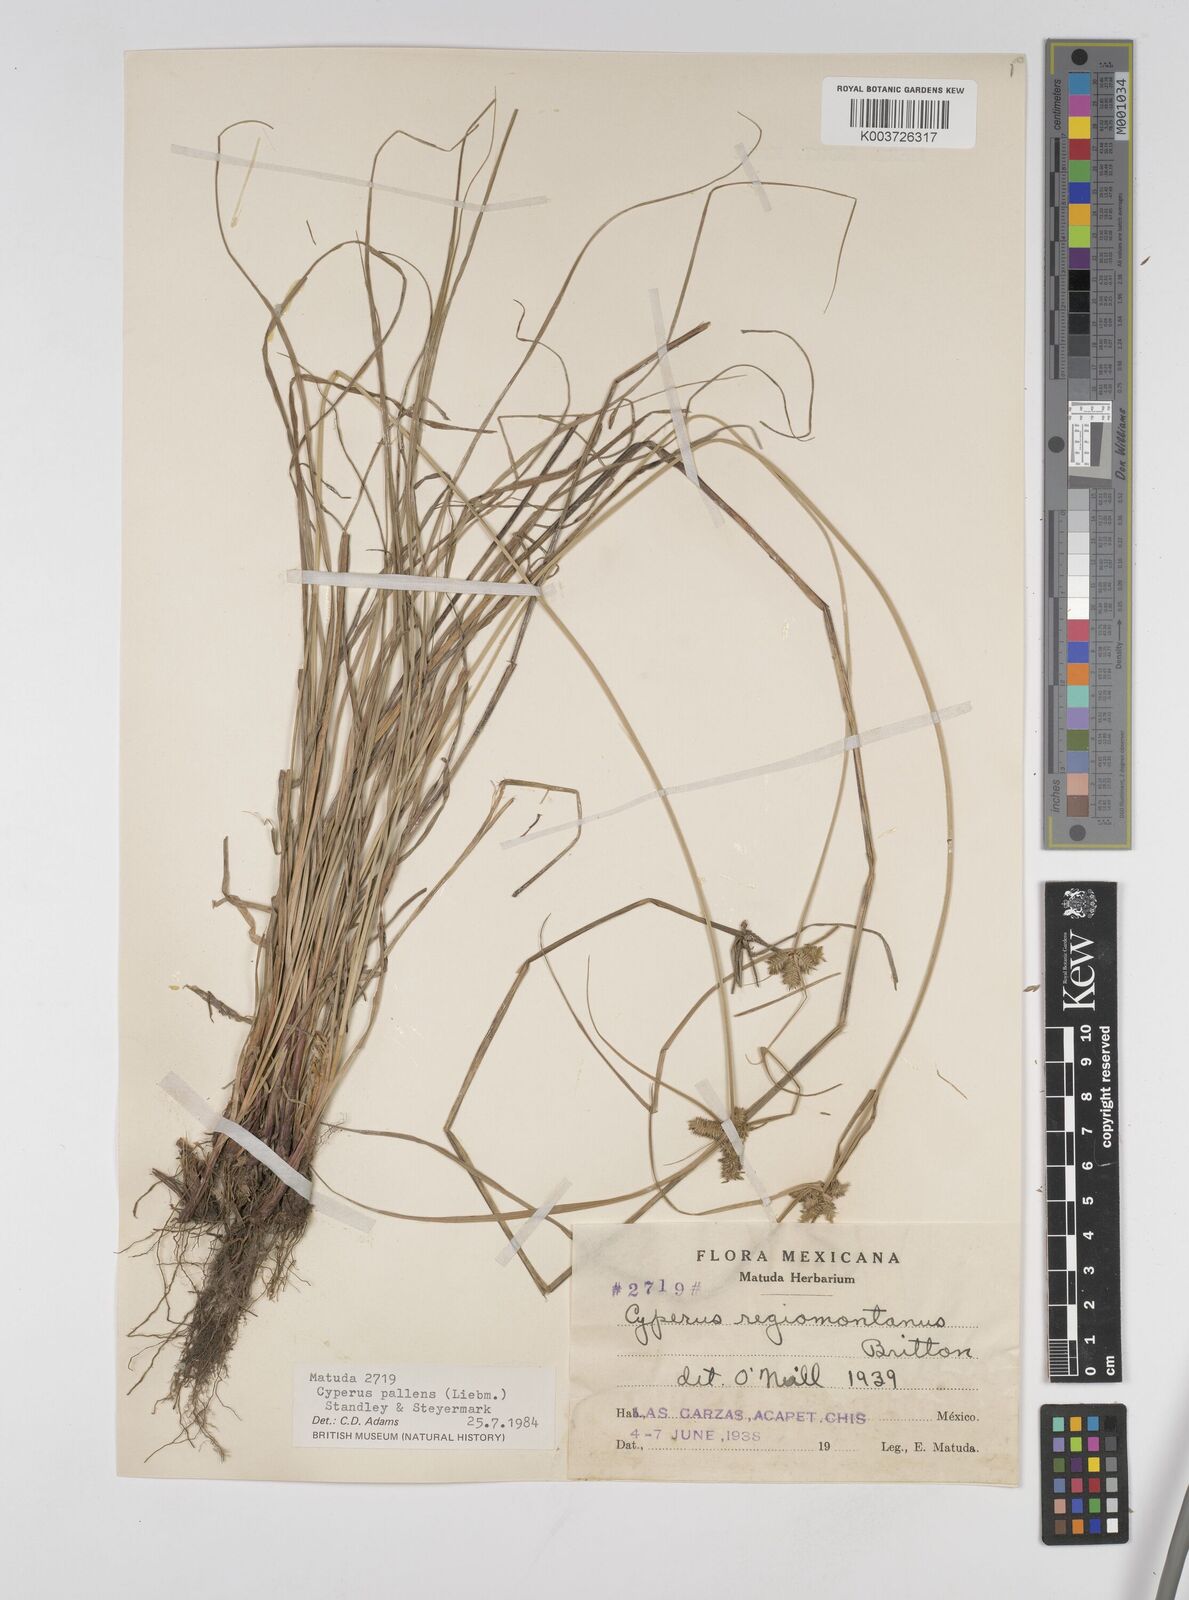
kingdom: Plantae
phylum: Tracheophyta
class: Liliopsida
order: Poales
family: Cyperaceae
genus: Cyperus
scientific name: Cyperus regiomontanus
